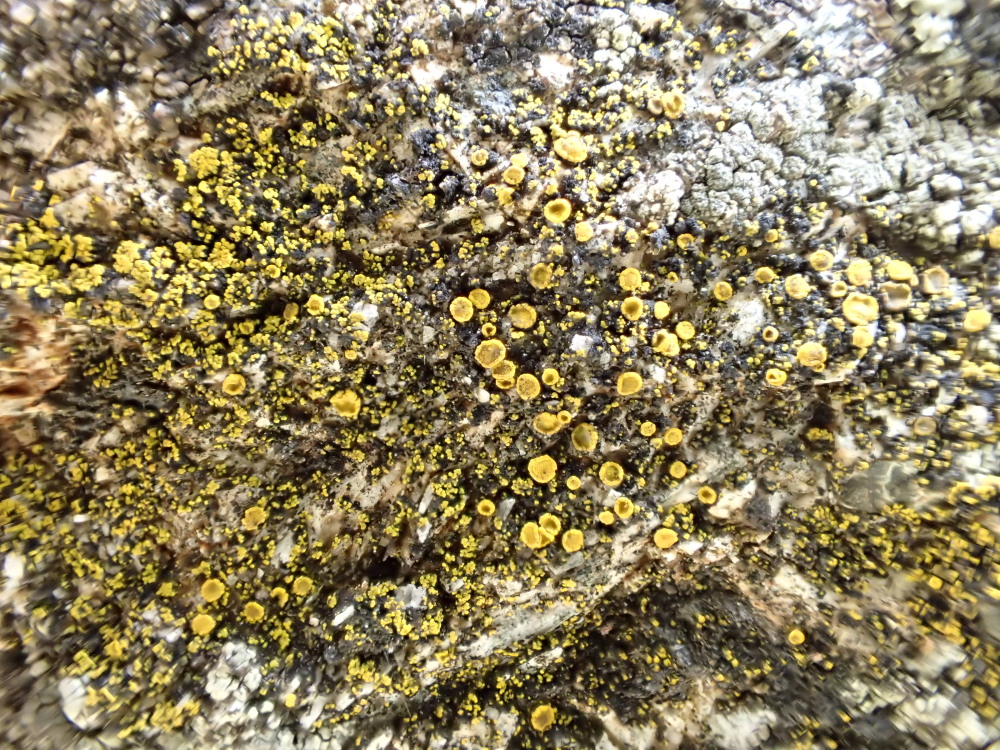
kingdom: Fungi
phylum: Ascomycota
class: Candelariomycetes
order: Candelariales
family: Candelariaceae
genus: Candelariella
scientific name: Candelariella aurella
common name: liden æggeblommelav
